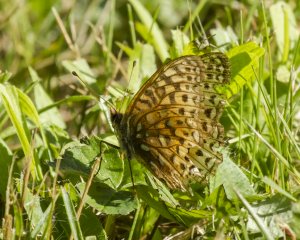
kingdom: Animalia
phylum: Arthropoda
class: Insecta
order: Lepidoptera
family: Nymphalidae
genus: Speyeria
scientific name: Speyeria cybele
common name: Great Spangled Fritillary
